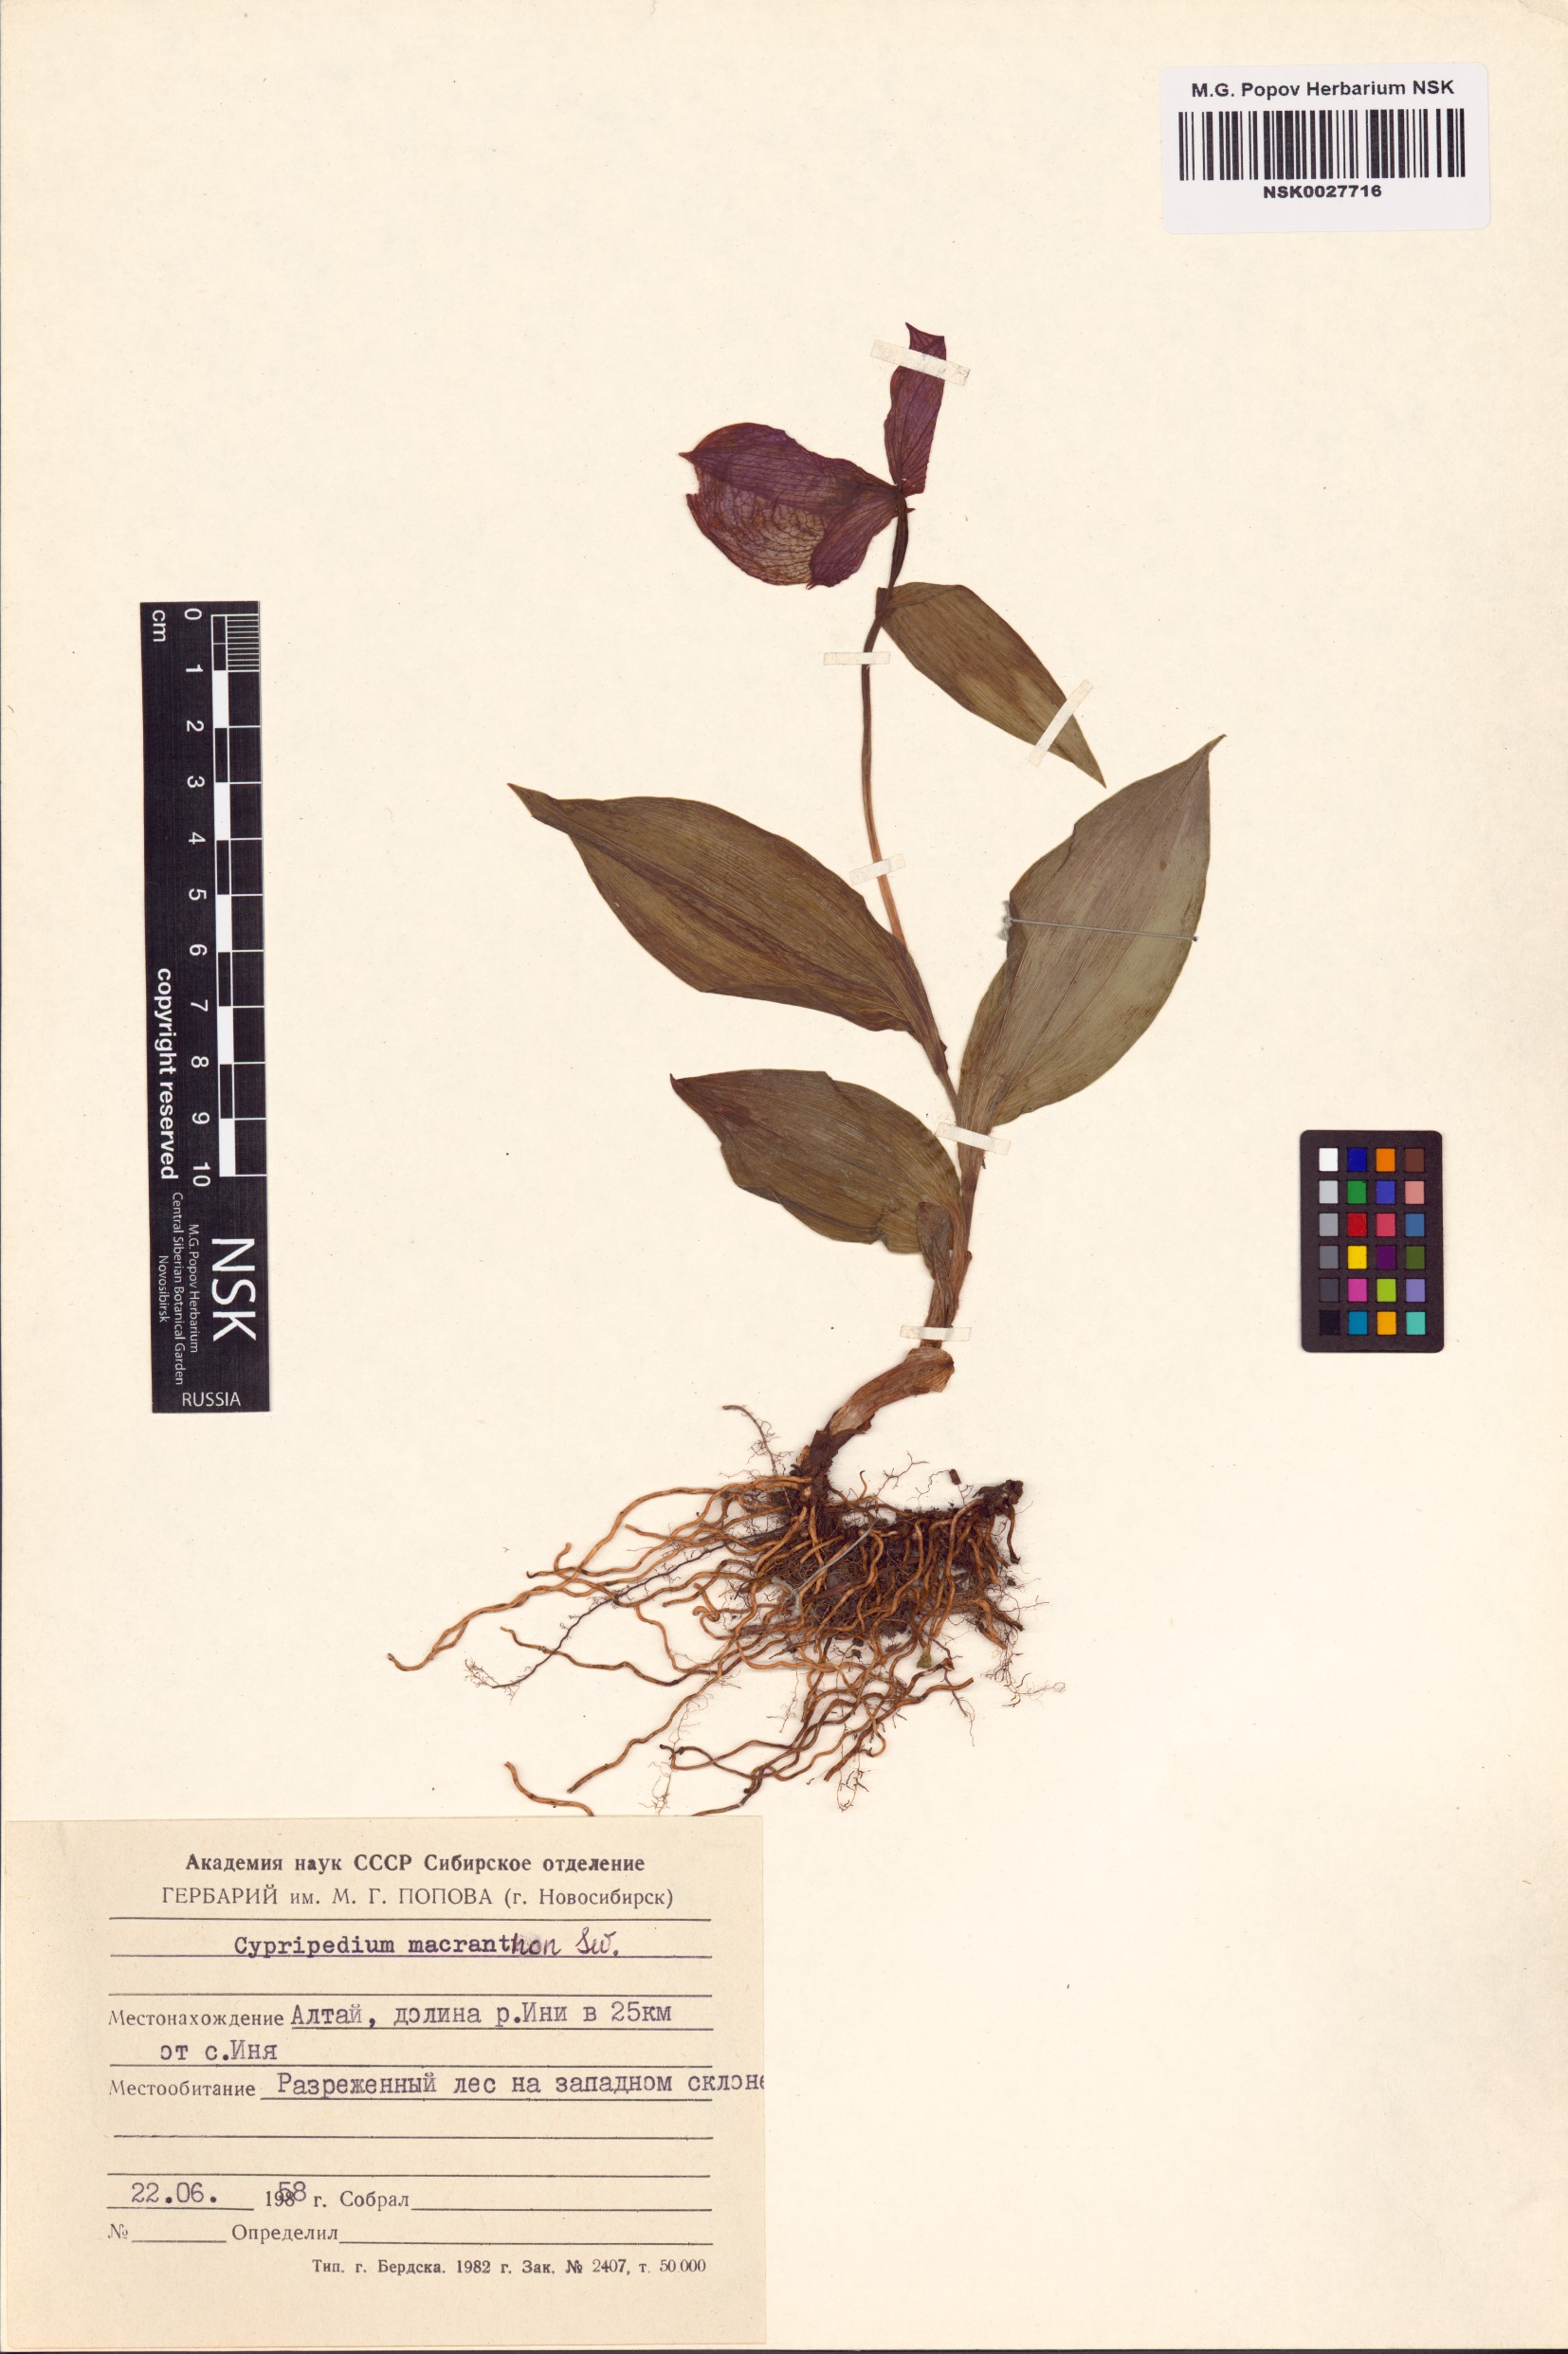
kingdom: Plantae
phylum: Tracheophyta
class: Liliopsida
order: Asparagales
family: Orchidaceae
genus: Cypripedium
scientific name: Cypripedium macranthos
